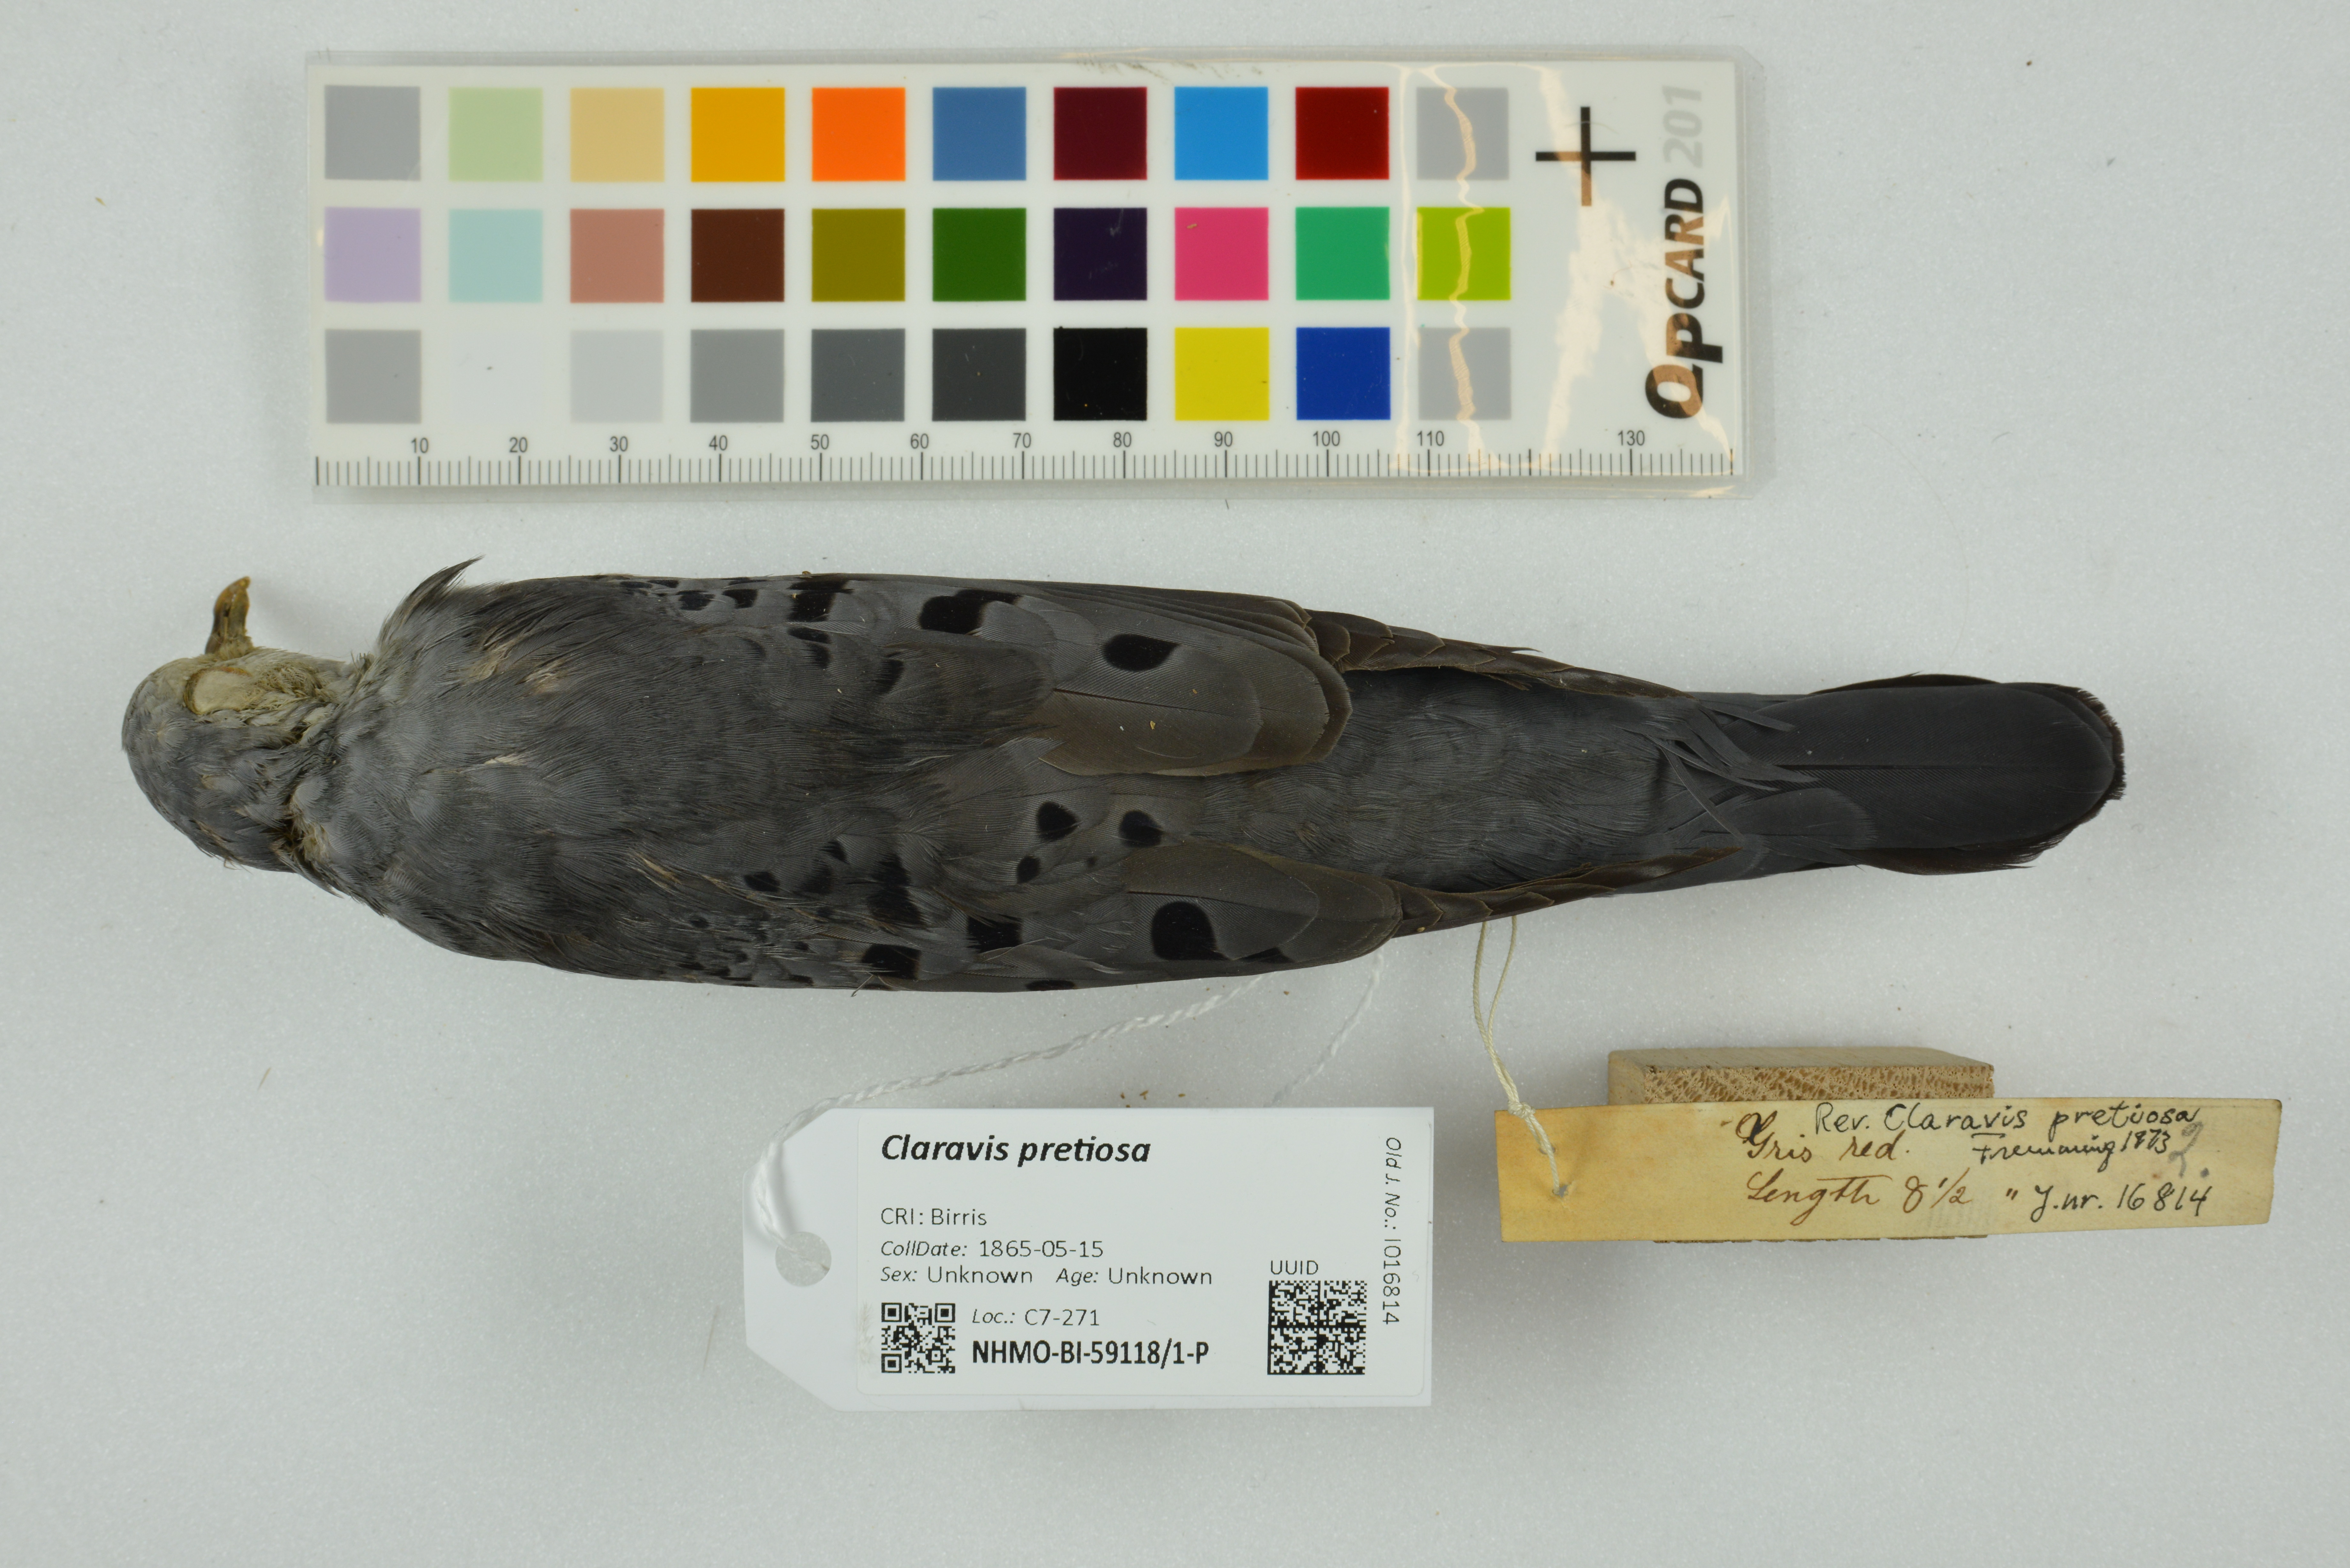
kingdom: Animalia
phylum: Chordata
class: Aves
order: Columbiformes
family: Columbidae
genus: Claravis
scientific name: Claravis pretiosa
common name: Blue ground-dove
